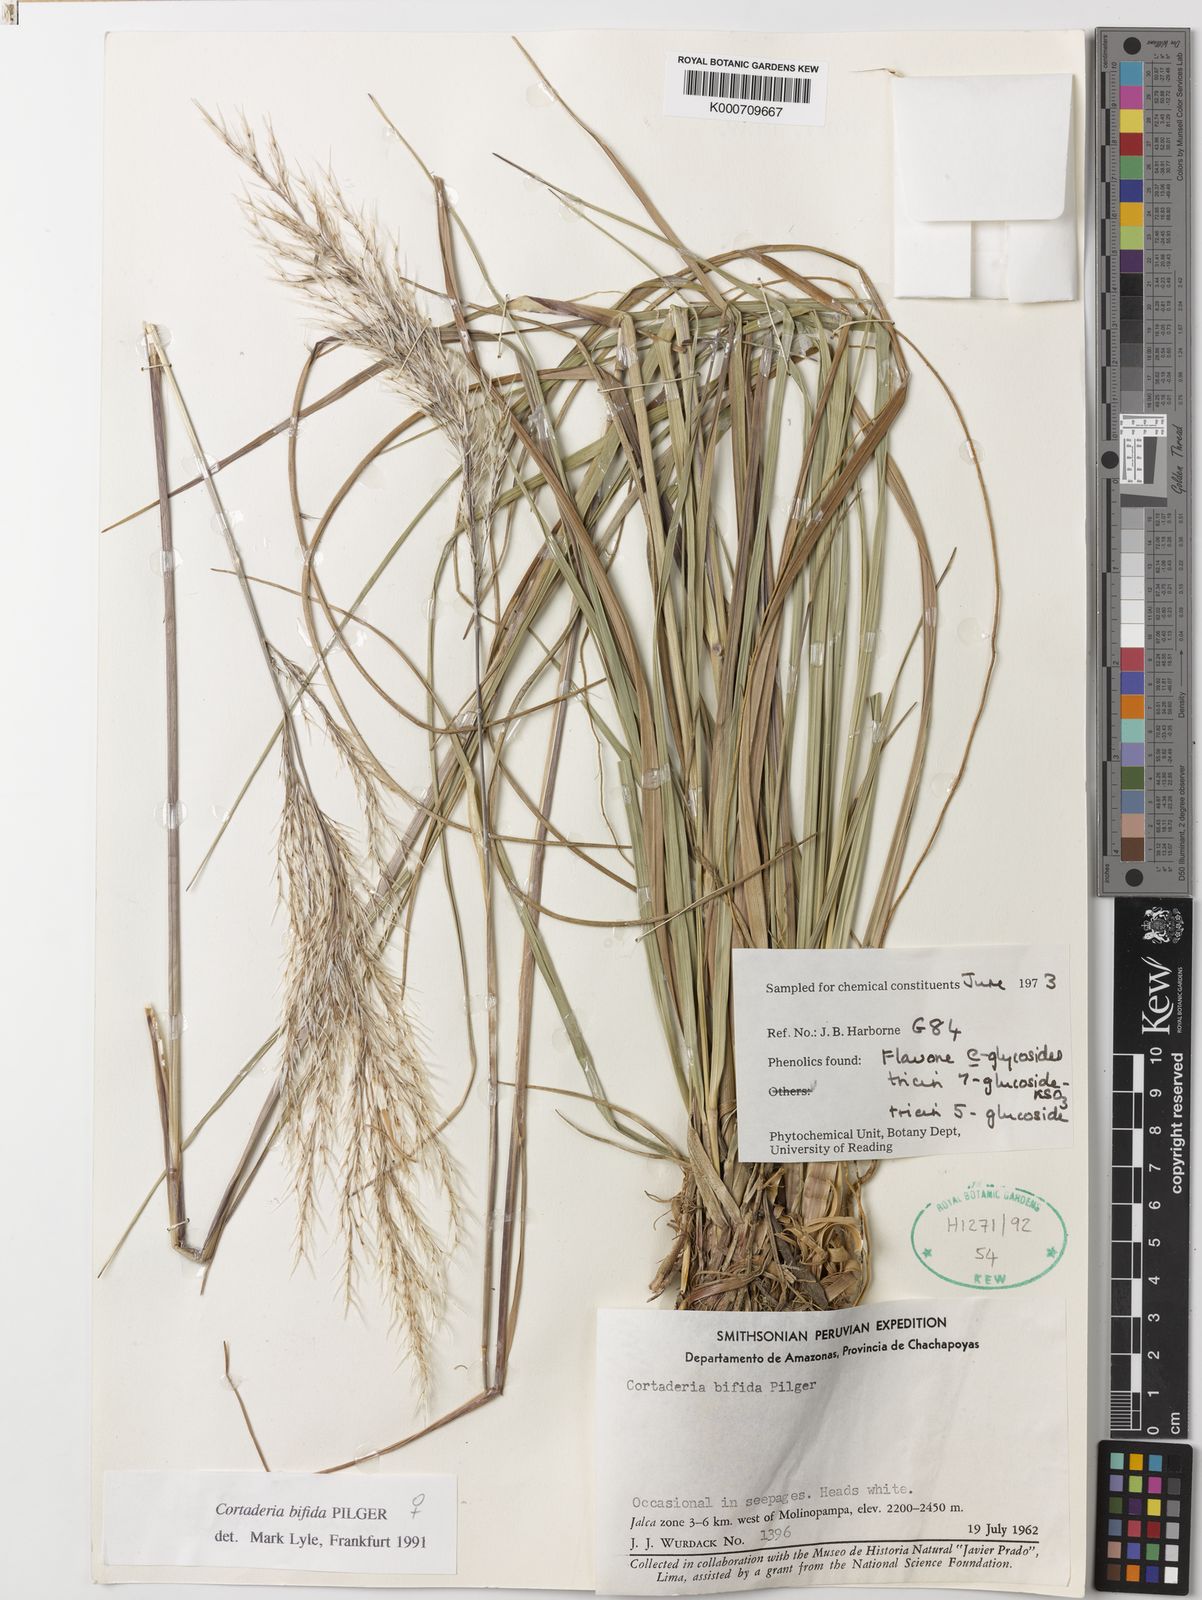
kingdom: Plantae
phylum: Tracheophyta
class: Liliopsida
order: Poales
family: Poaceae
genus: Cortaderia
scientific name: Cortaderia bifida
